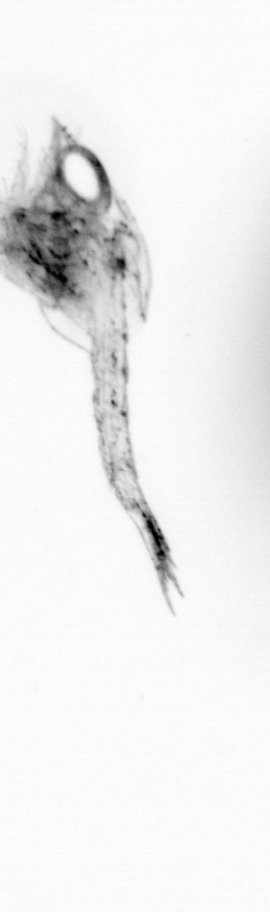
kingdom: Animalia
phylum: Arthropoda
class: Copepoda
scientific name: Copepoda
